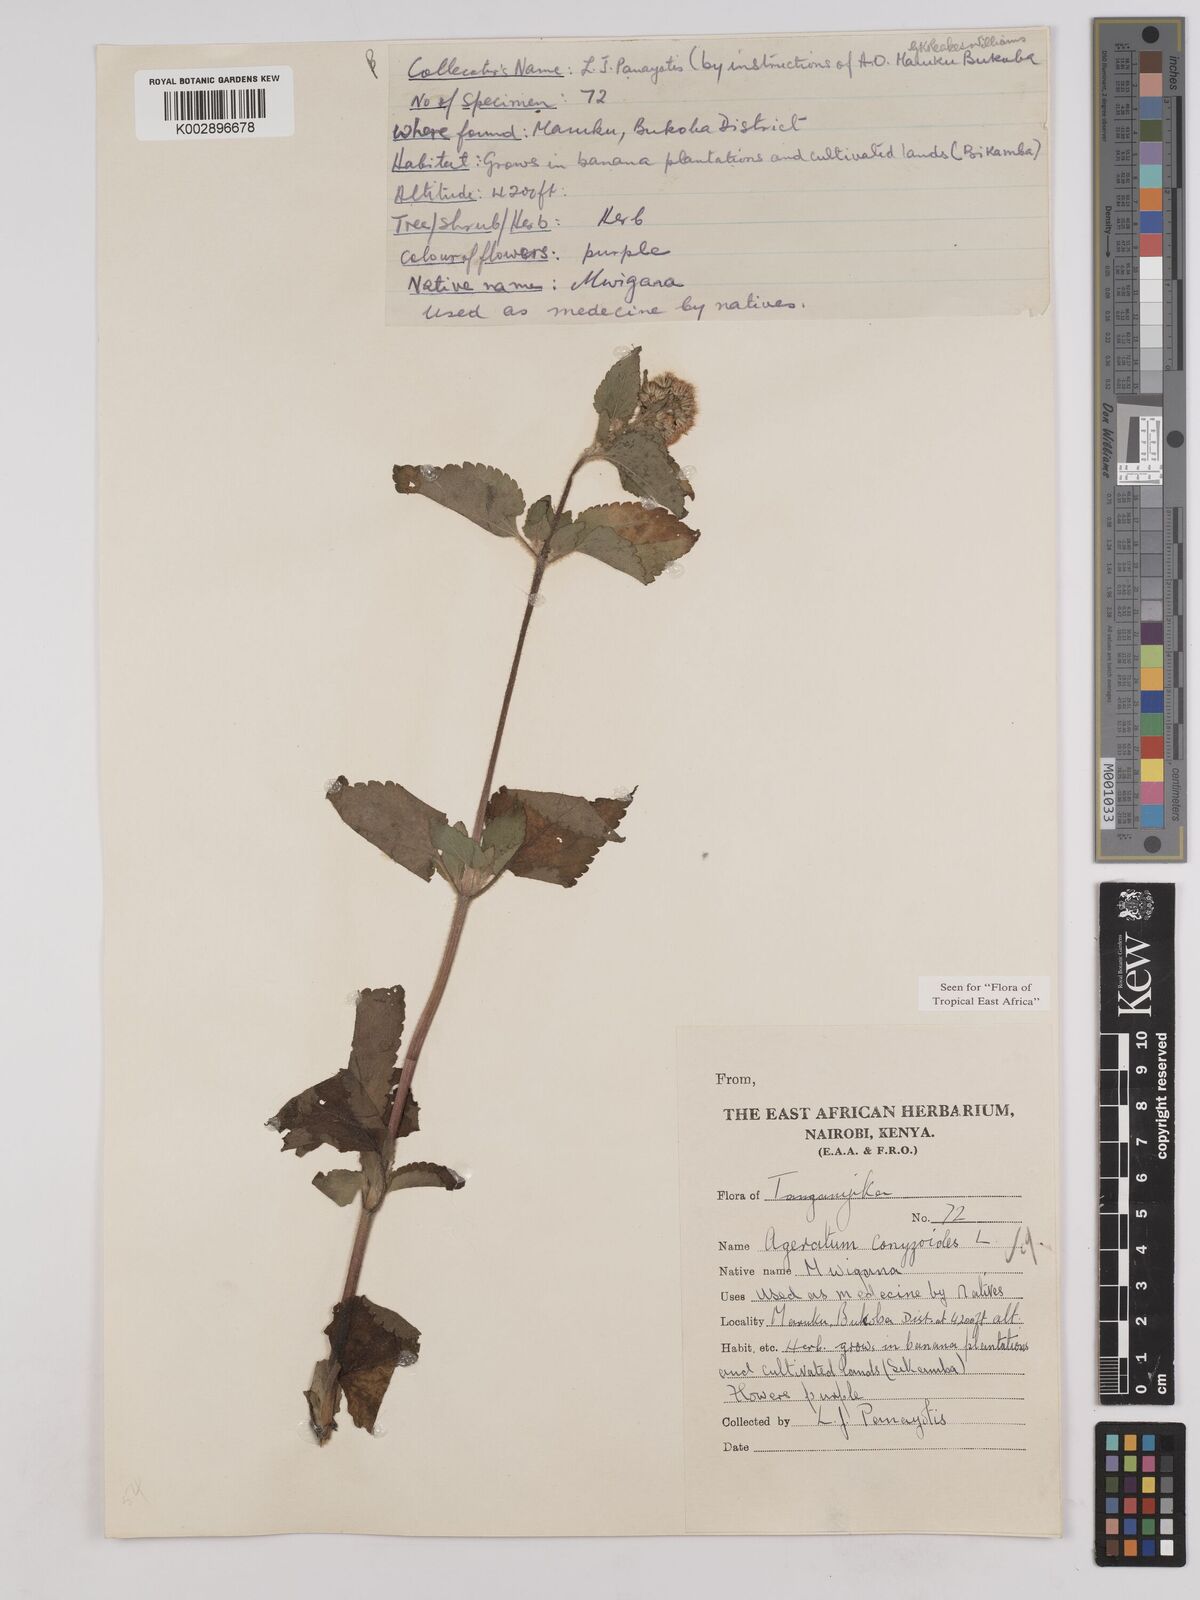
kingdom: Plantae
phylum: Tracheophyta
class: Magnoliopsida
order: Asterales
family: Asteraceae
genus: Ageratum
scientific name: Ageratum conyzoides
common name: Tropical whiteweed
